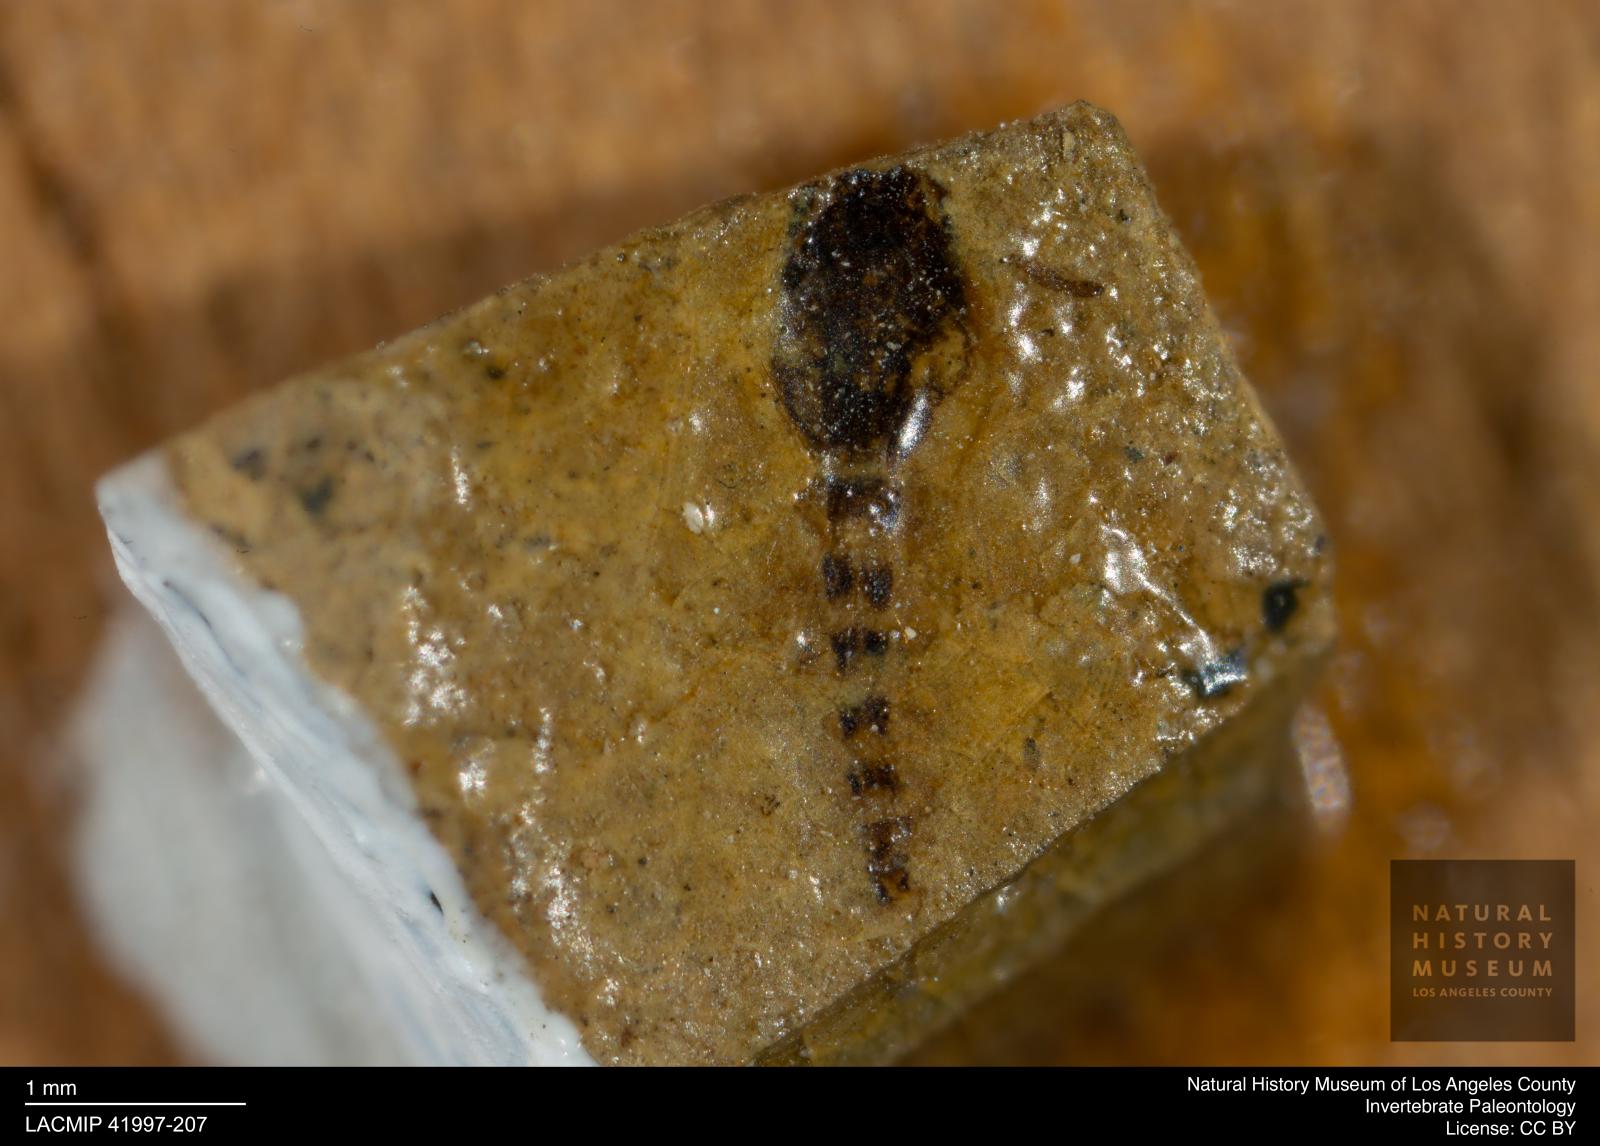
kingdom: Animalia
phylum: Arthropoda
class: Insecta
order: Diptera
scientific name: Diptera
